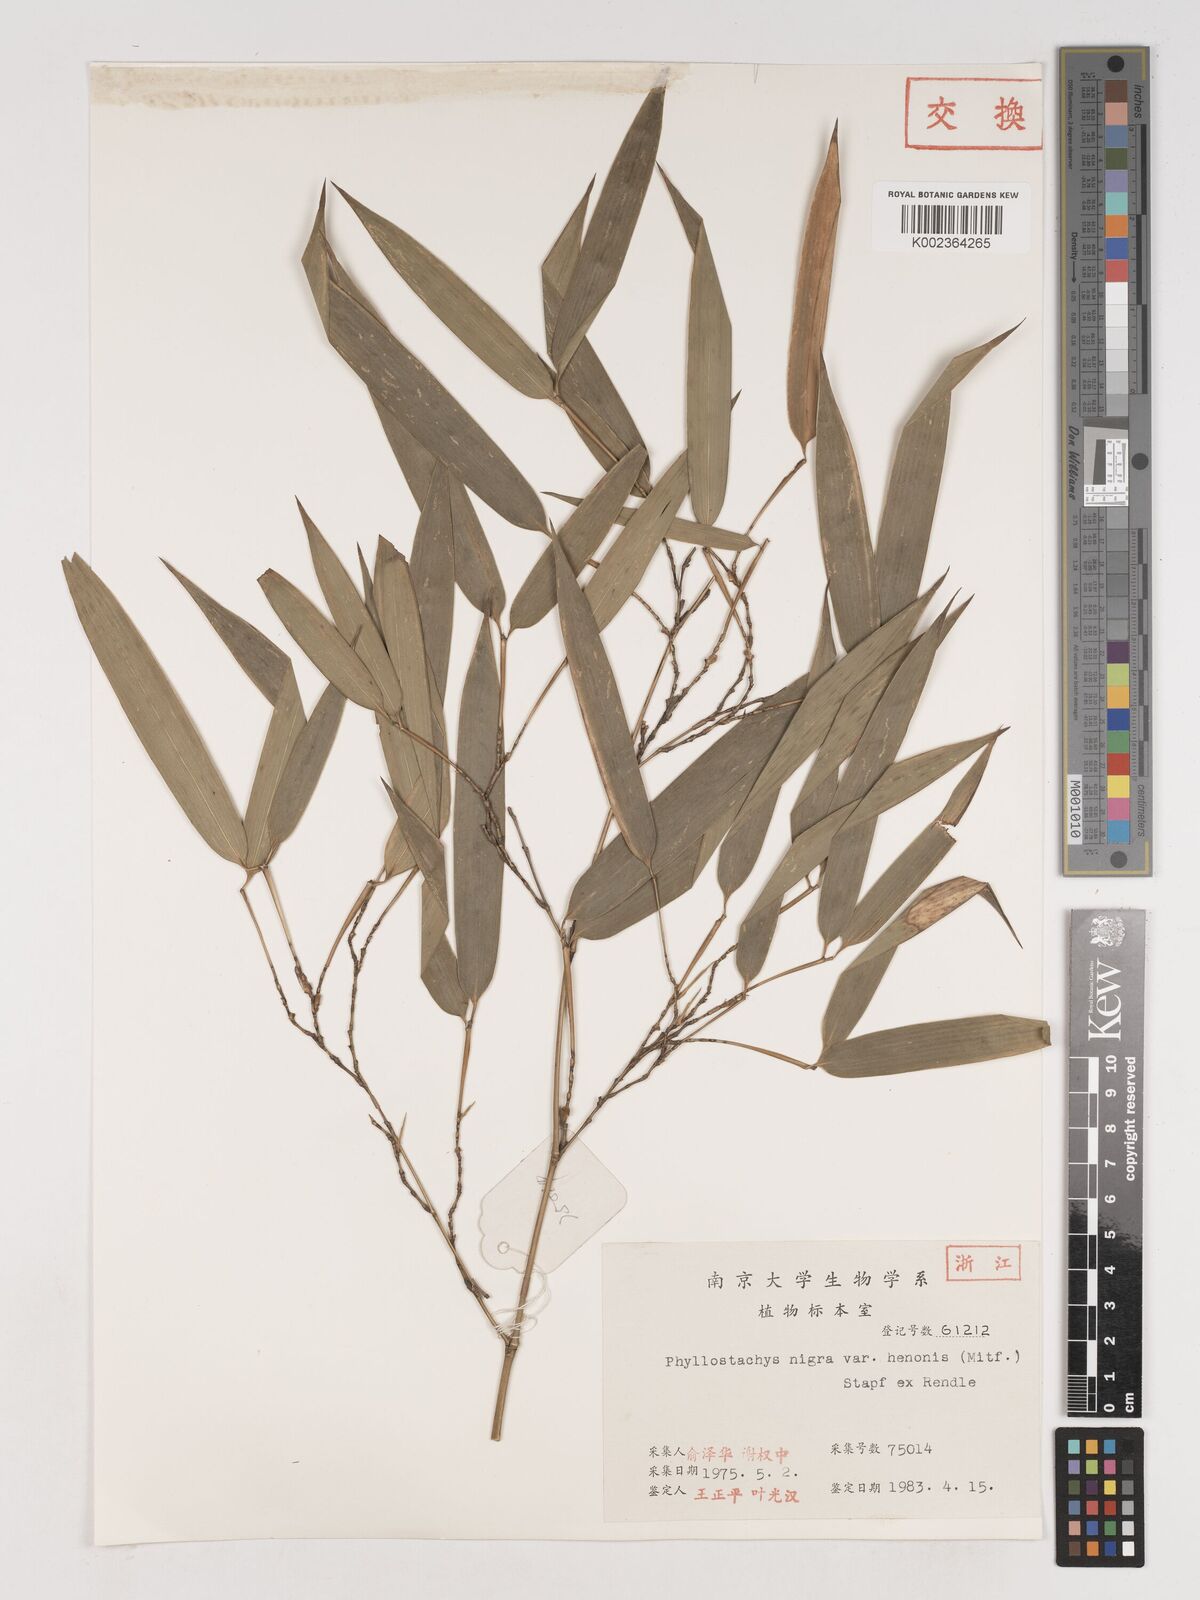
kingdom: Plantae
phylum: Tracheophyta
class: Liliopsida
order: Poales
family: Poaceae
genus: Phyllostachys
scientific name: Phyllostachys nigra
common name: Black bamboo
